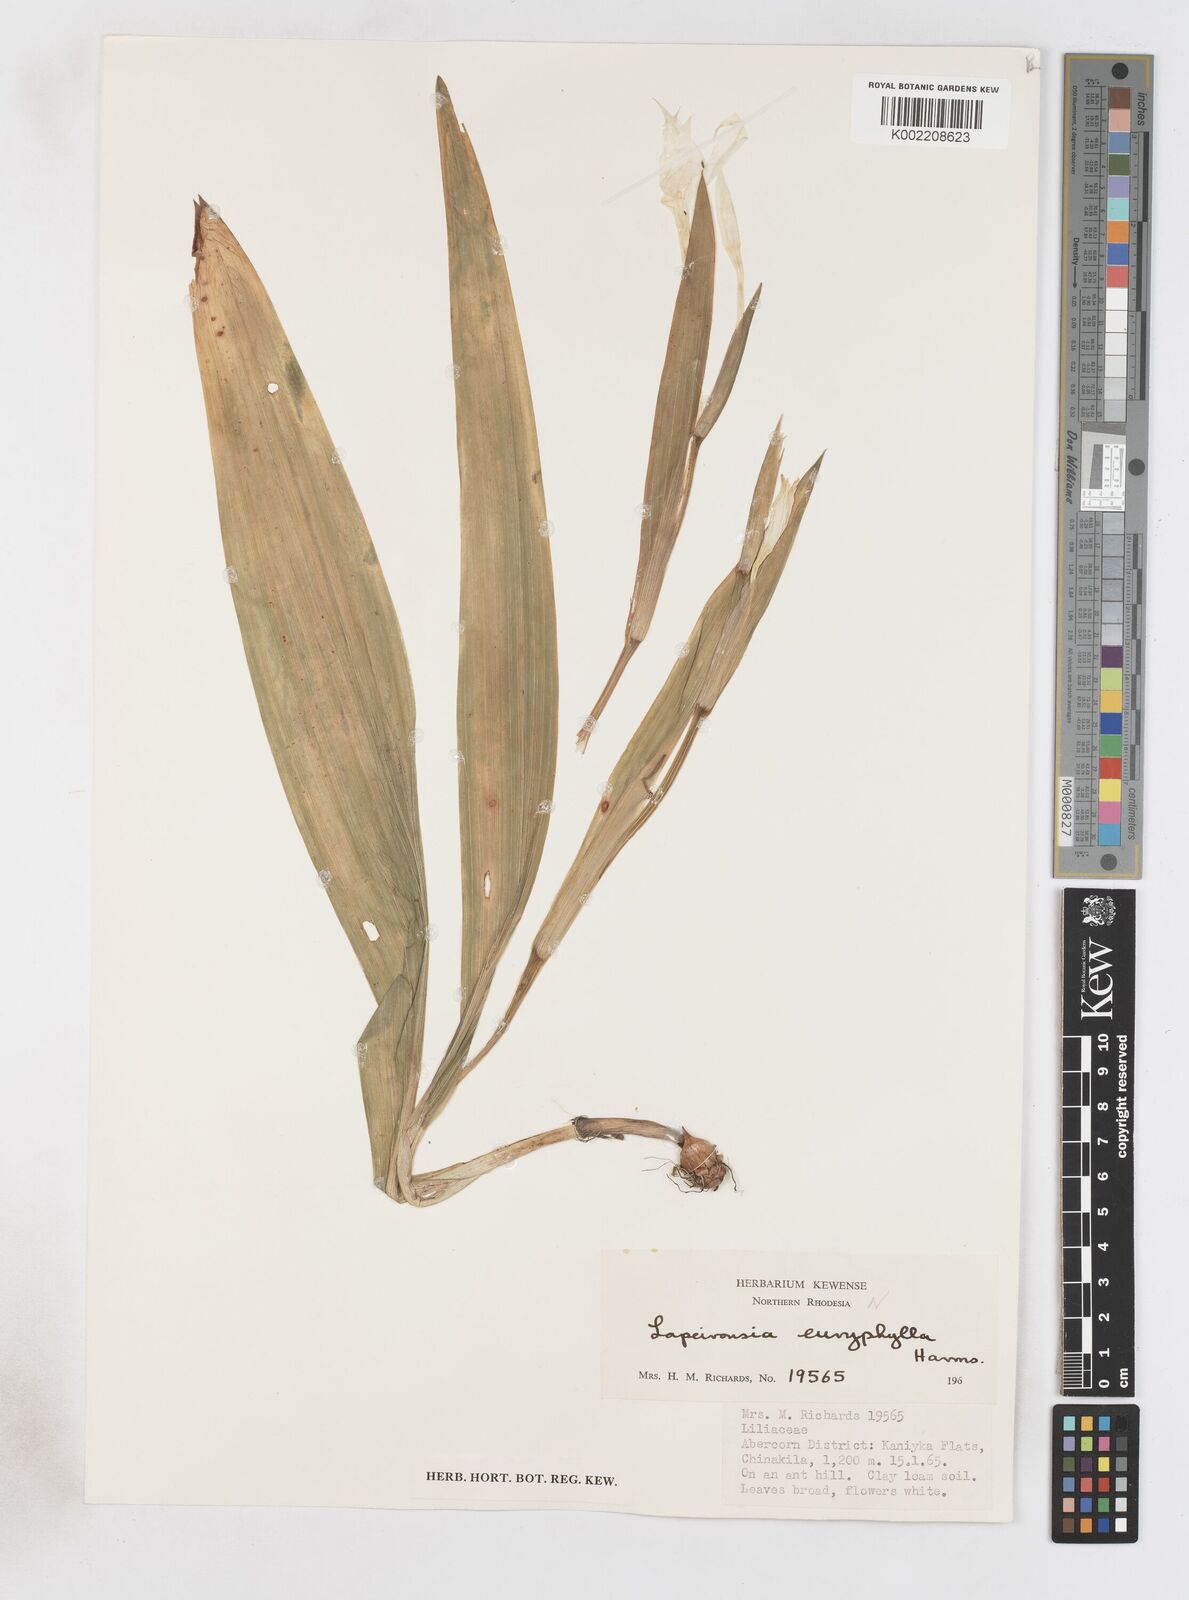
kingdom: Plantae
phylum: Tracheophyta
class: Liliopsida
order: Asparagales
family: Iridaceae
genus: Savannosiphon
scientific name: Savannosiphon euryphylla
